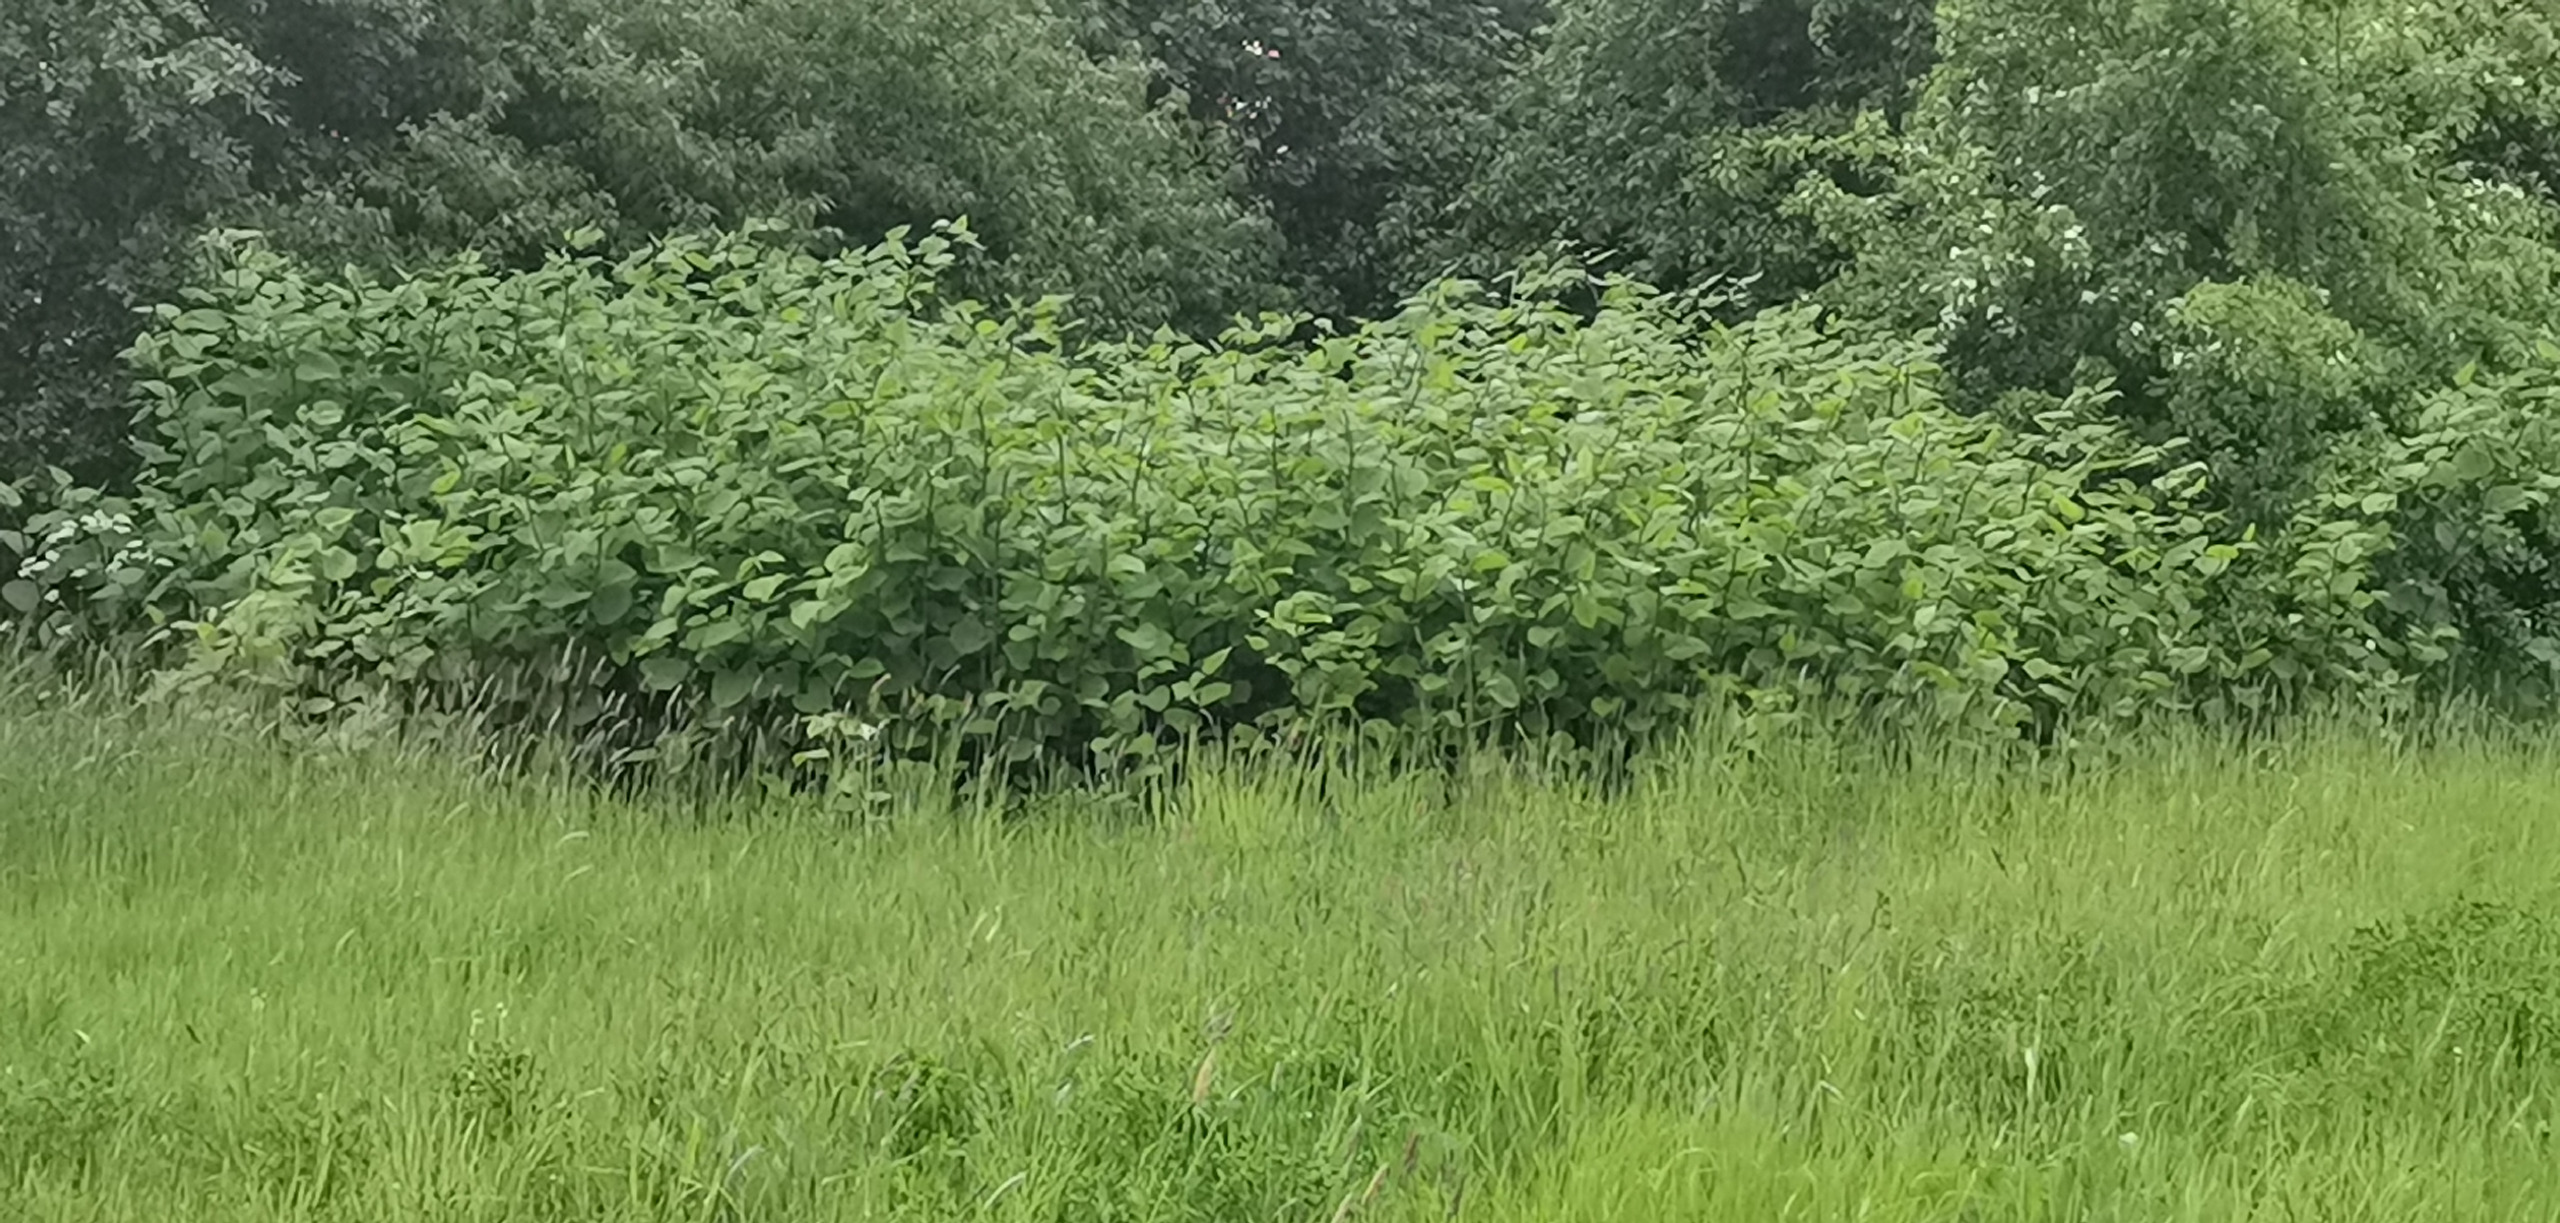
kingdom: Plantae
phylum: Tracheophyta
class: Magnoliopsida
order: Caryophyllales
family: Polygonaceae
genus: Reynoutria
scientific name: Reynoutria
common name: Pileurt (Reynoutria-slægten)
